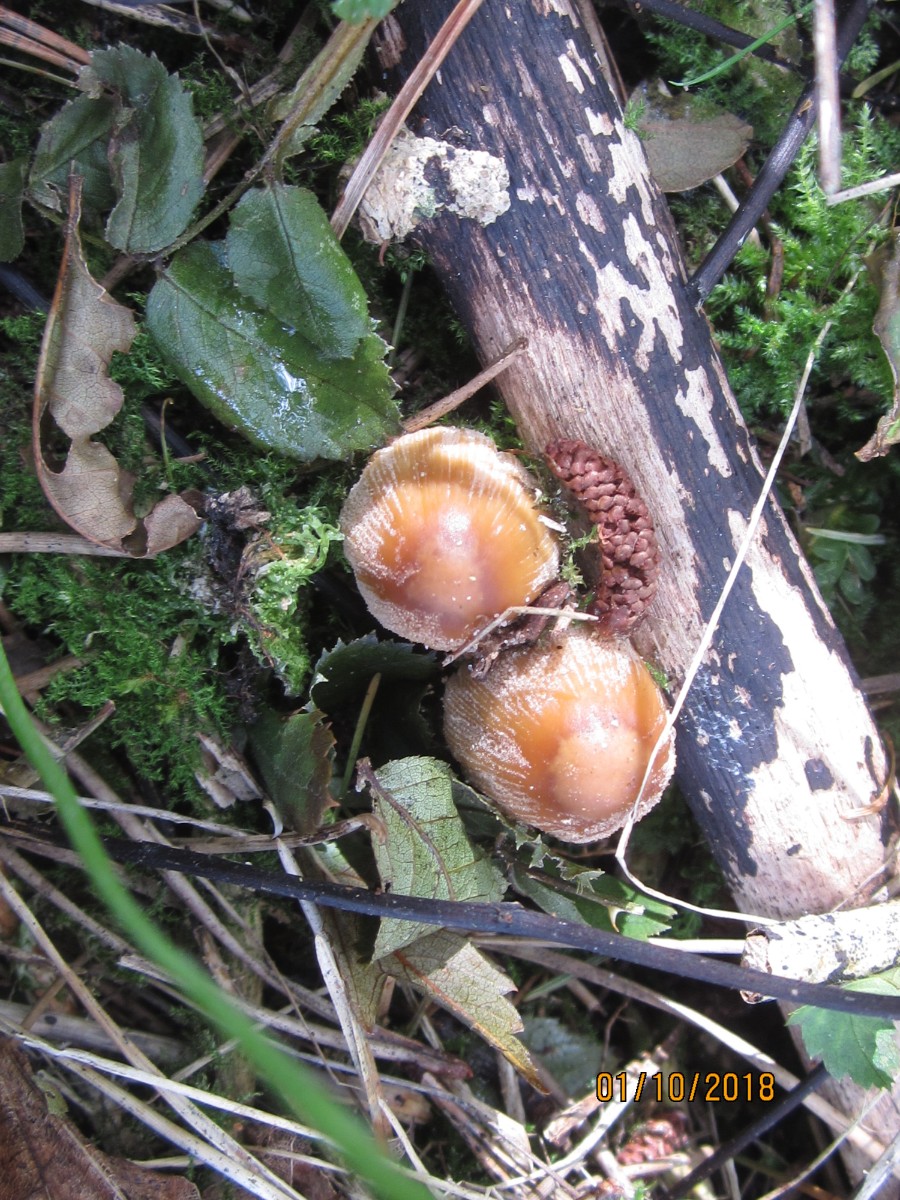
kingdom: Fungi
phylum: Basidiomycota
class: Agaricomycetes
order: Agaricales
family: Psathyrellaceae
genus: Coprinellus
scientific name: Coprinellus micaceus
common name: glimmer-blækhat
